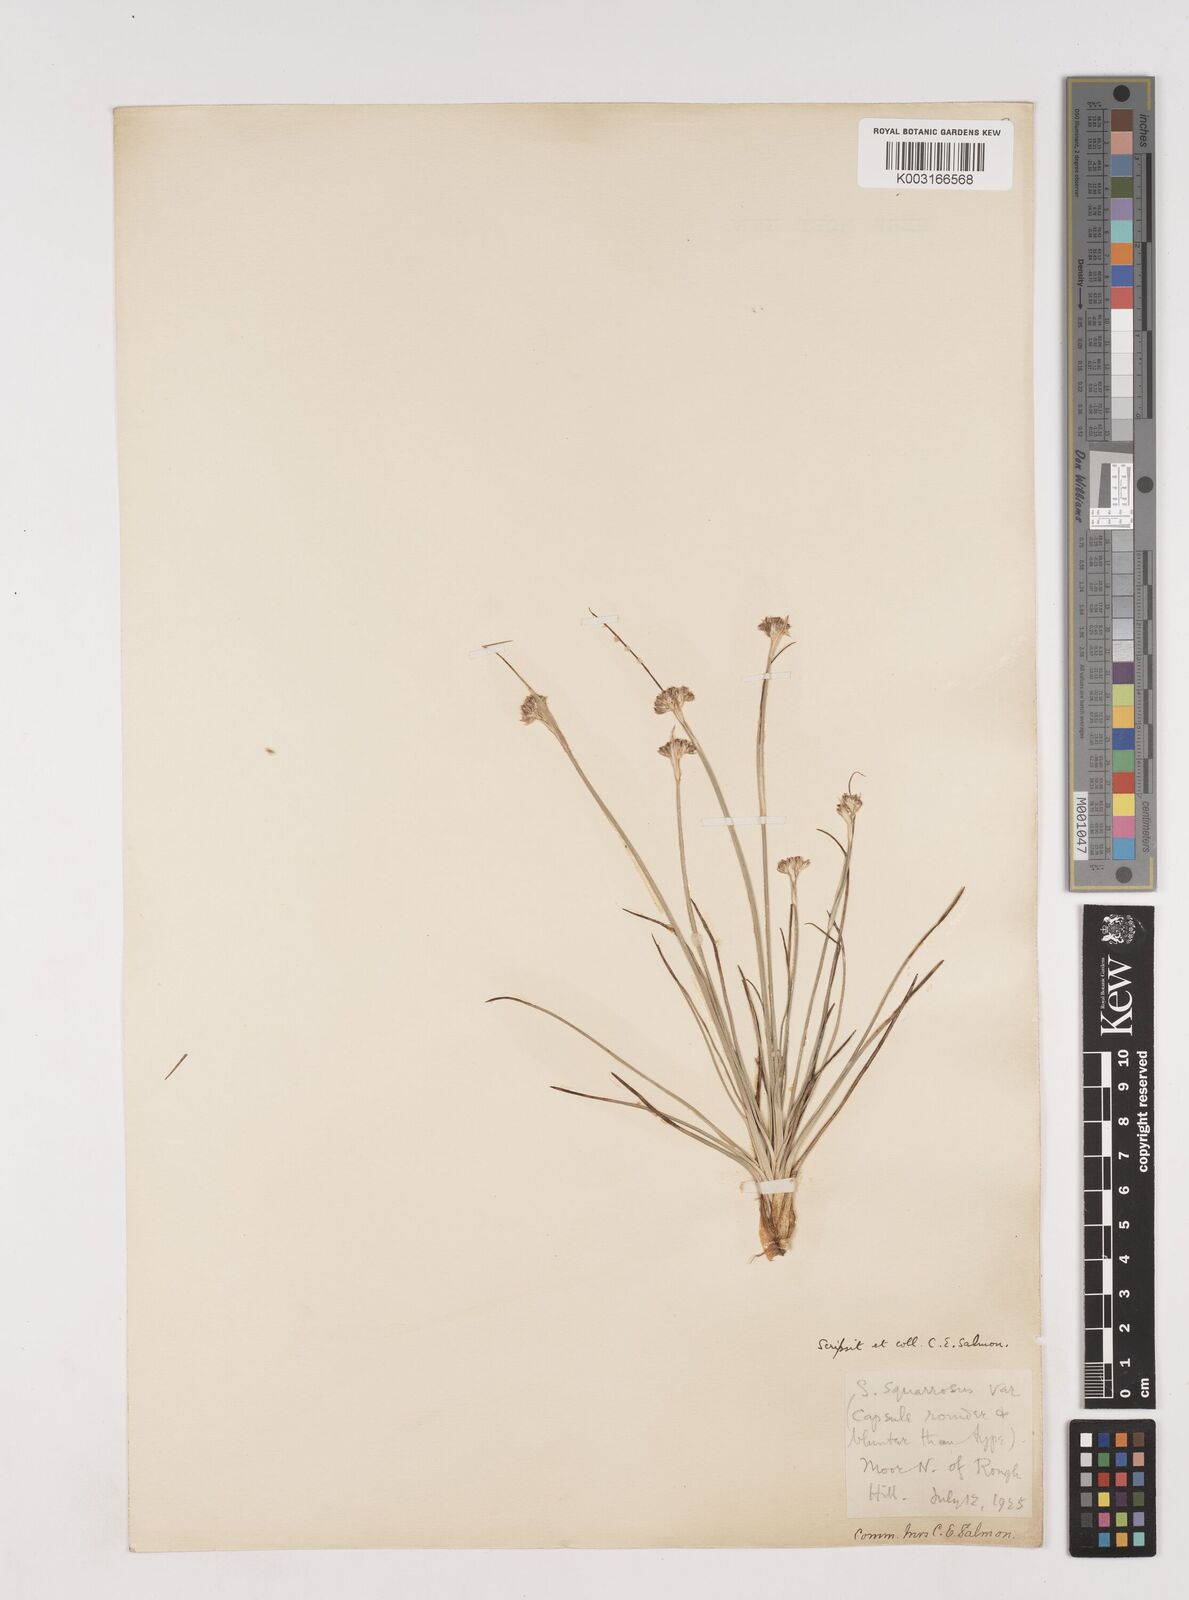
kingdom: Plantae
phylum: Tracheophyta
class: Liliopsida
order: Poales
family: Juncaceae
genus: Juncus
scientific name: Juncus squarrosus
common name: Heath rush
